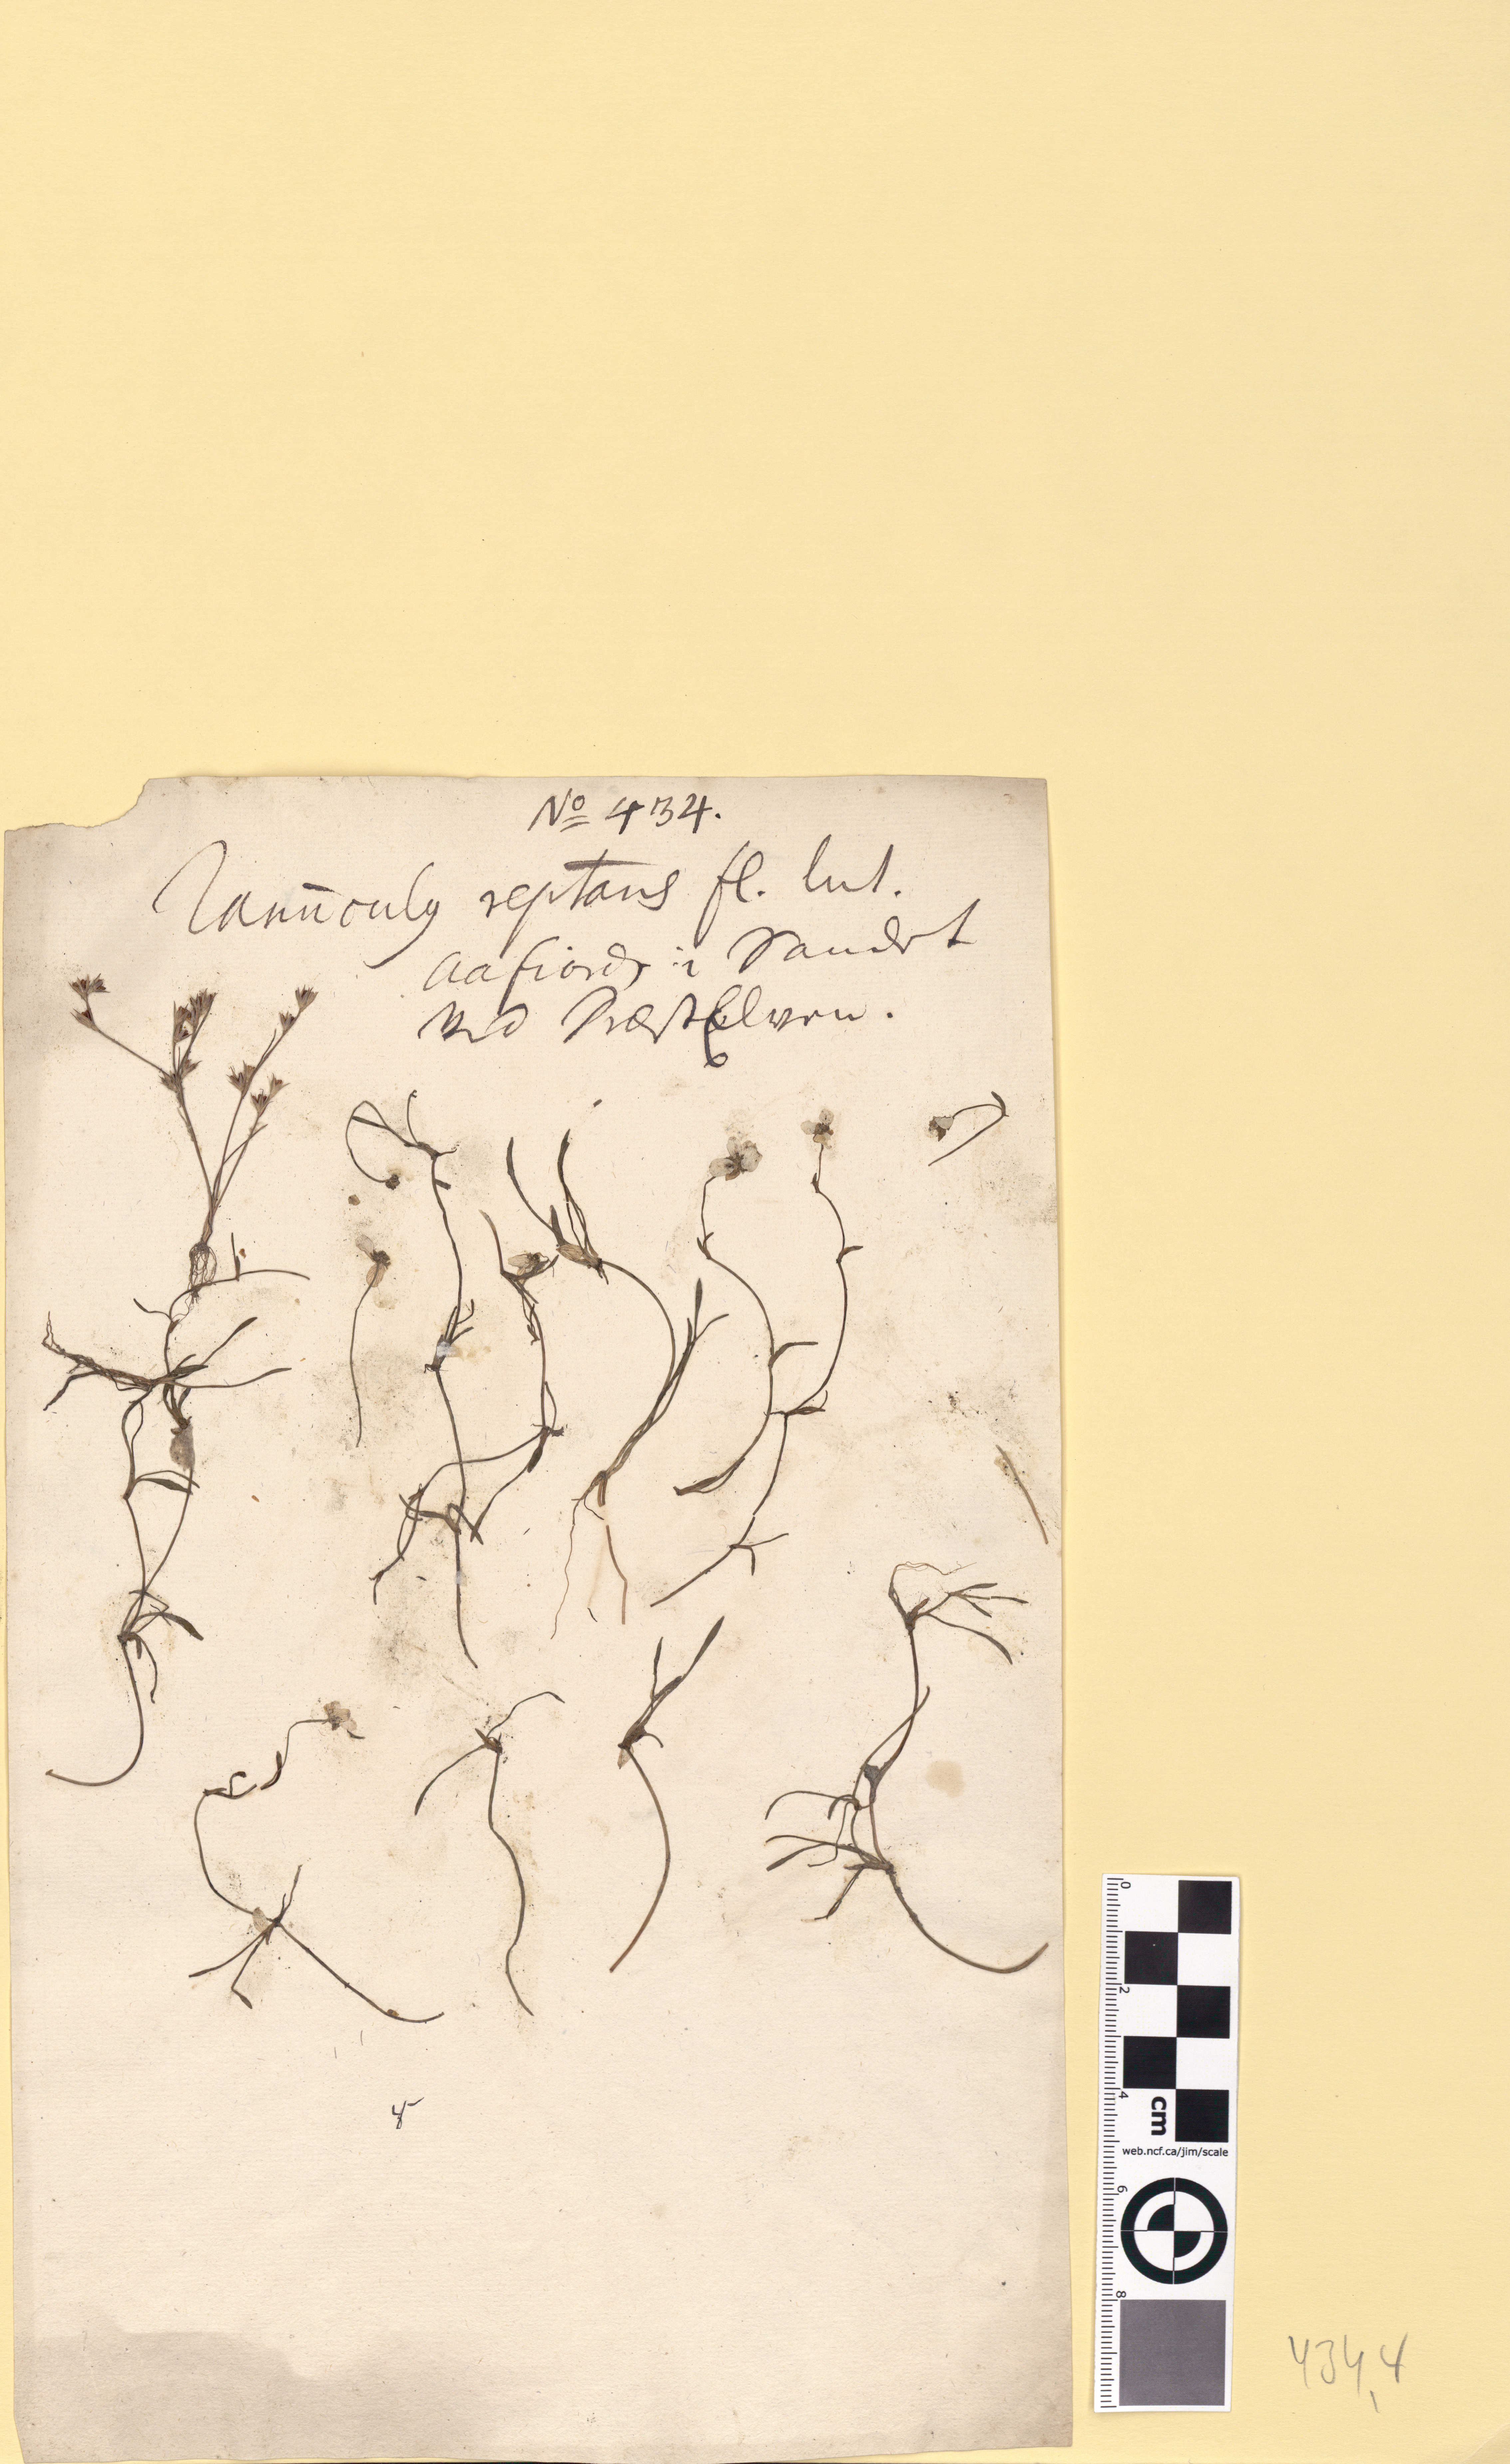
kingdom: Plantae
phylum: Tracheophyta
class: Magnoliopsida
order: Ranunculales
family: Ranunculaceae
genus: Ranunculus
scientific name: Ranunculus reptans
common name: Creeping spearwort
